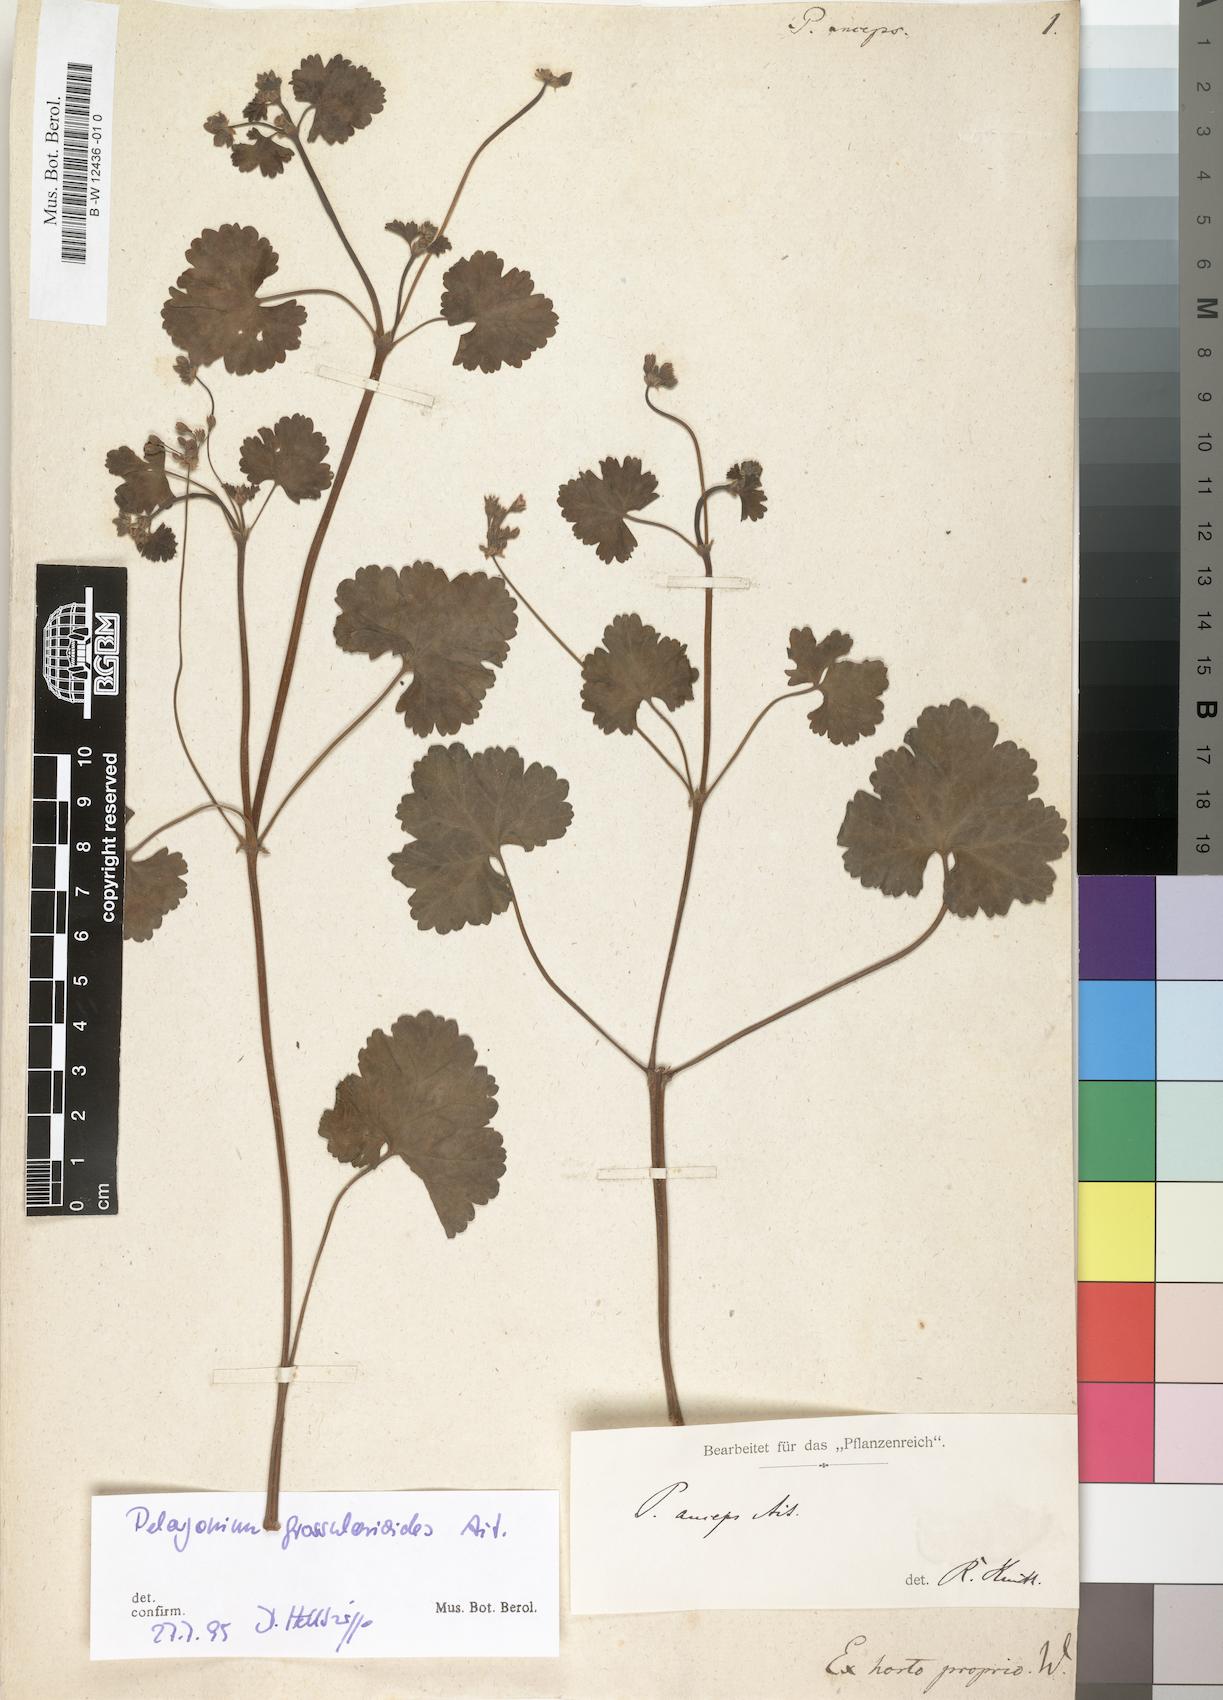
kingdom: Plantae
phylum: Tracheophyta
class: Magnoliopsida
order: Geraniales
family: Geraniaceae
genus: Pelargonium
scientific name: Pelargonium grossularioides
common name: Gooseberry geranium
